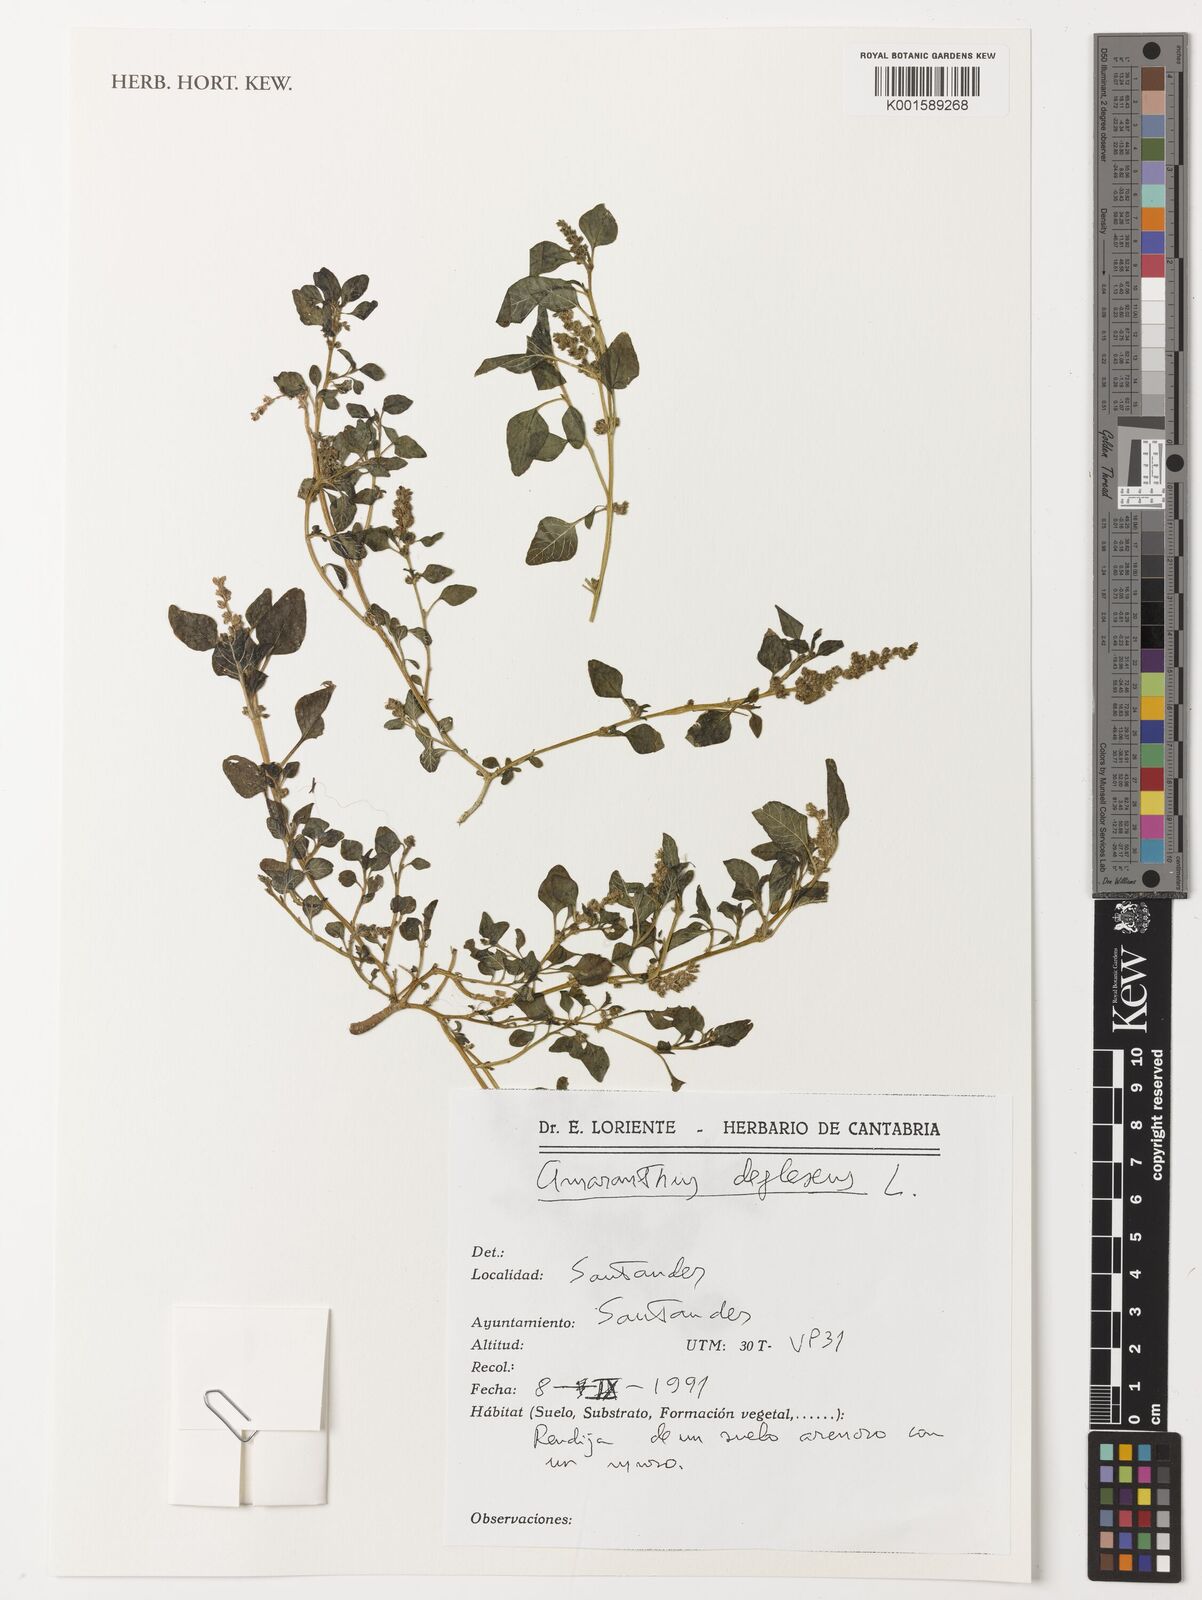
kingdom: Plantae
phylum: Tracheophyta
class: Magnoliopsida
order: Caryophyllales
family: Amaranthaceae
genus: Amaranthus
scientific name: Amaranthus deflexus
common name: Perennial pigweed
